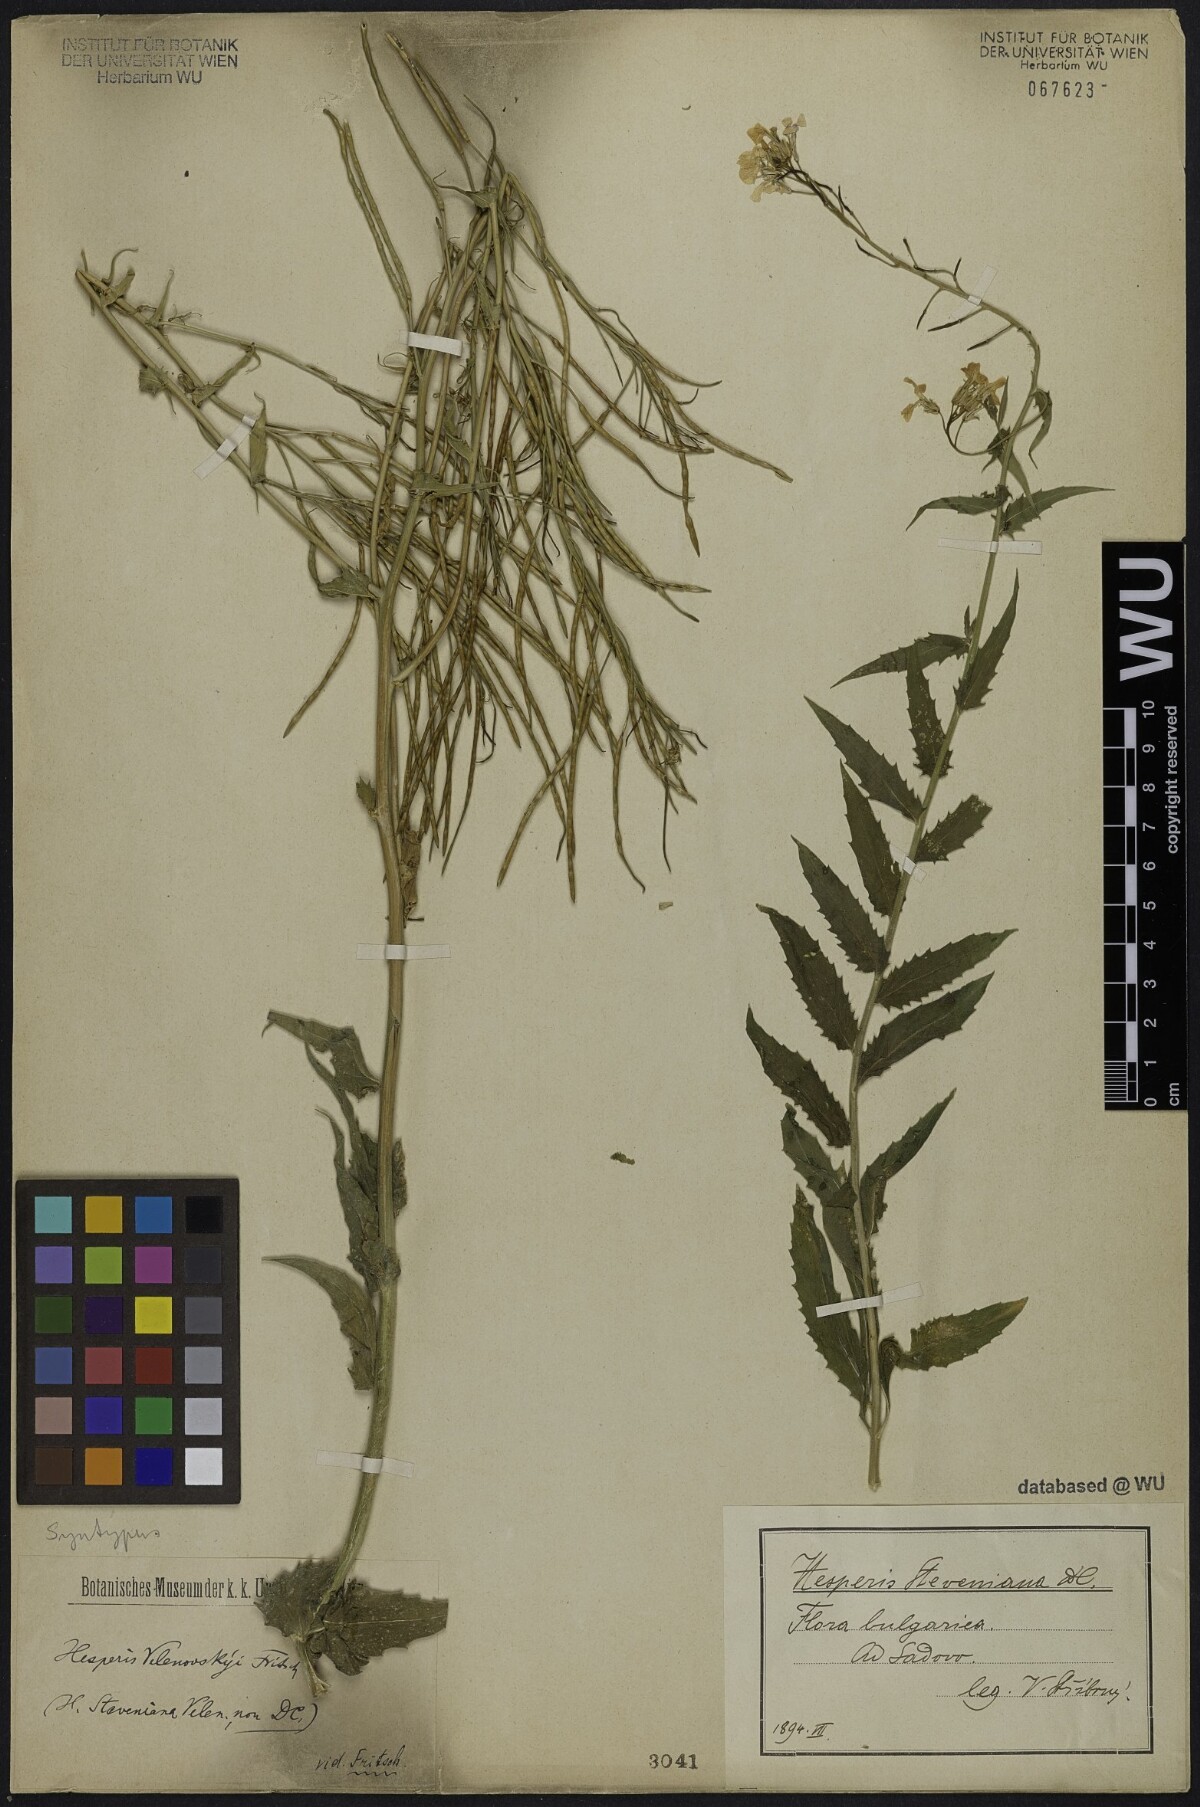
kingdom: Plantae
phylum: Tracheophyta
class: Magnoliopsida
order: Brassicales
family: Brassicaceae
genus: Hesperis
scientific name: Hesperis sylvestris
